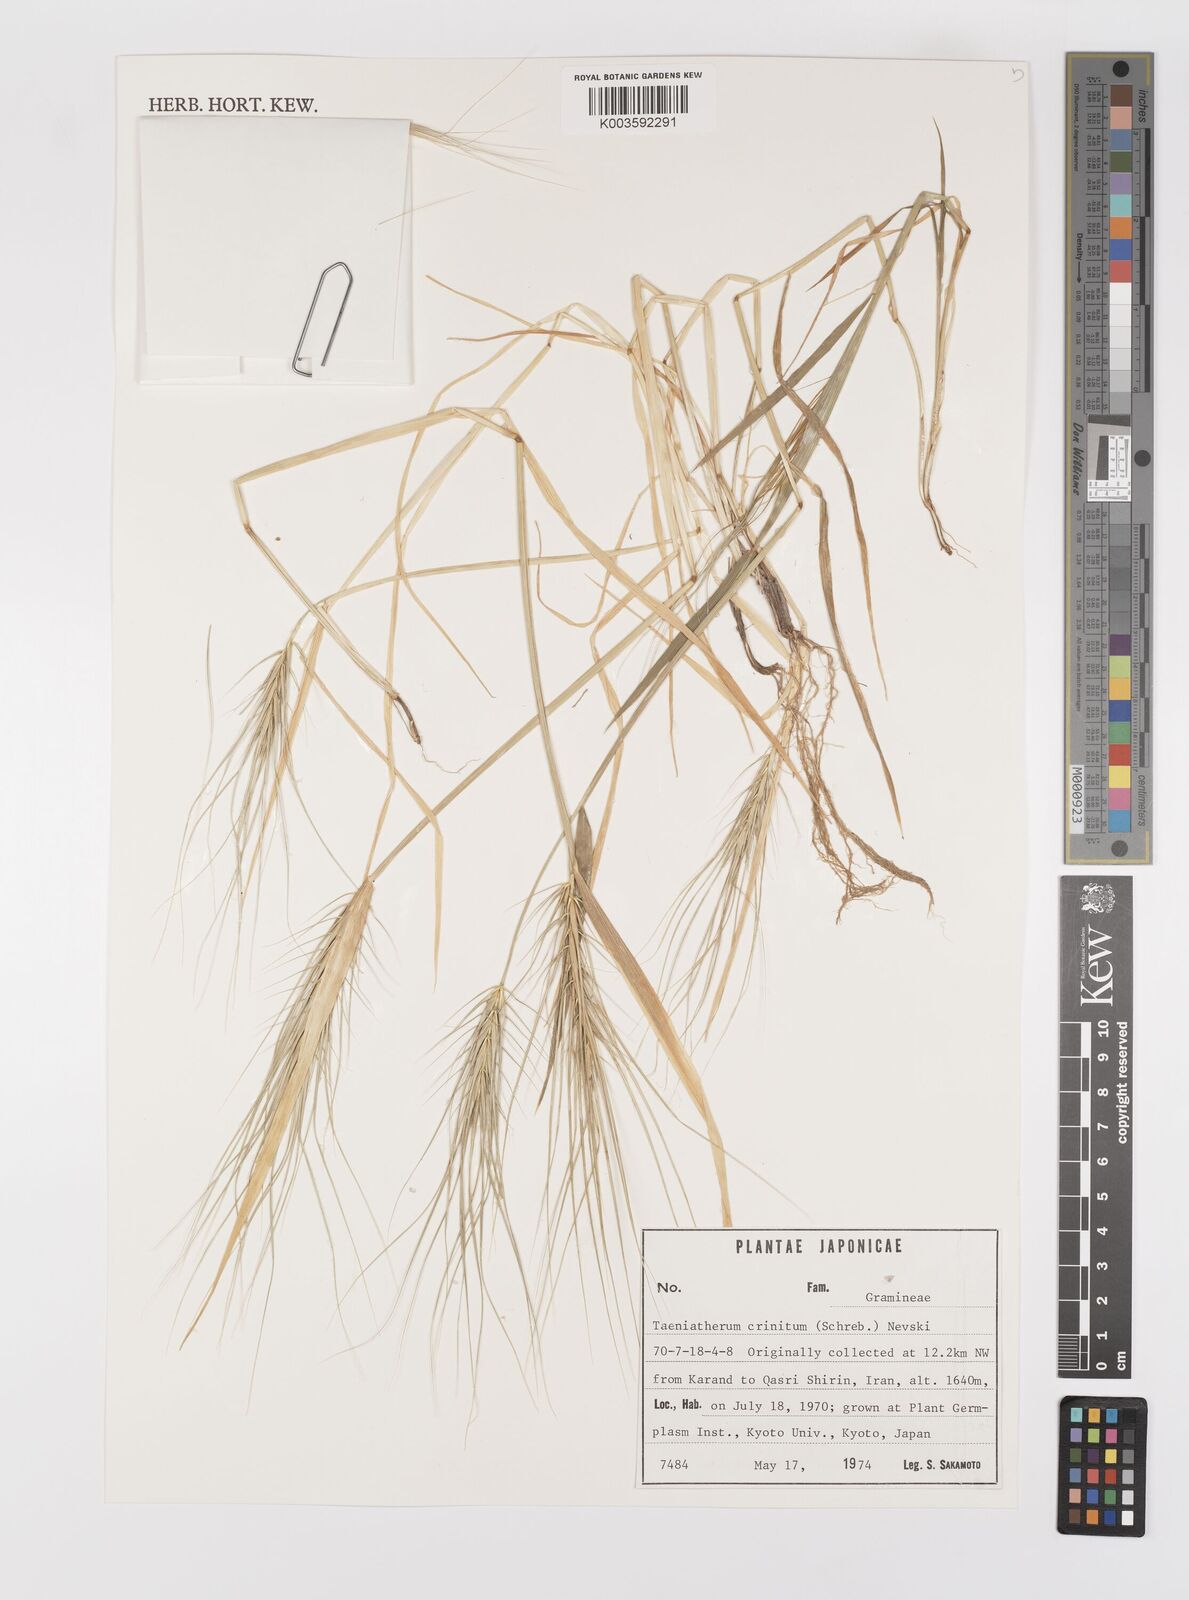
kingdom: Plantae
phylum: Tracheophyta
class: Liliopsida
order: Poales
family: Poaceae
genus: Taeniatherum
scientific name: Taeniatherum caput-medusae
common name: Medusahead
